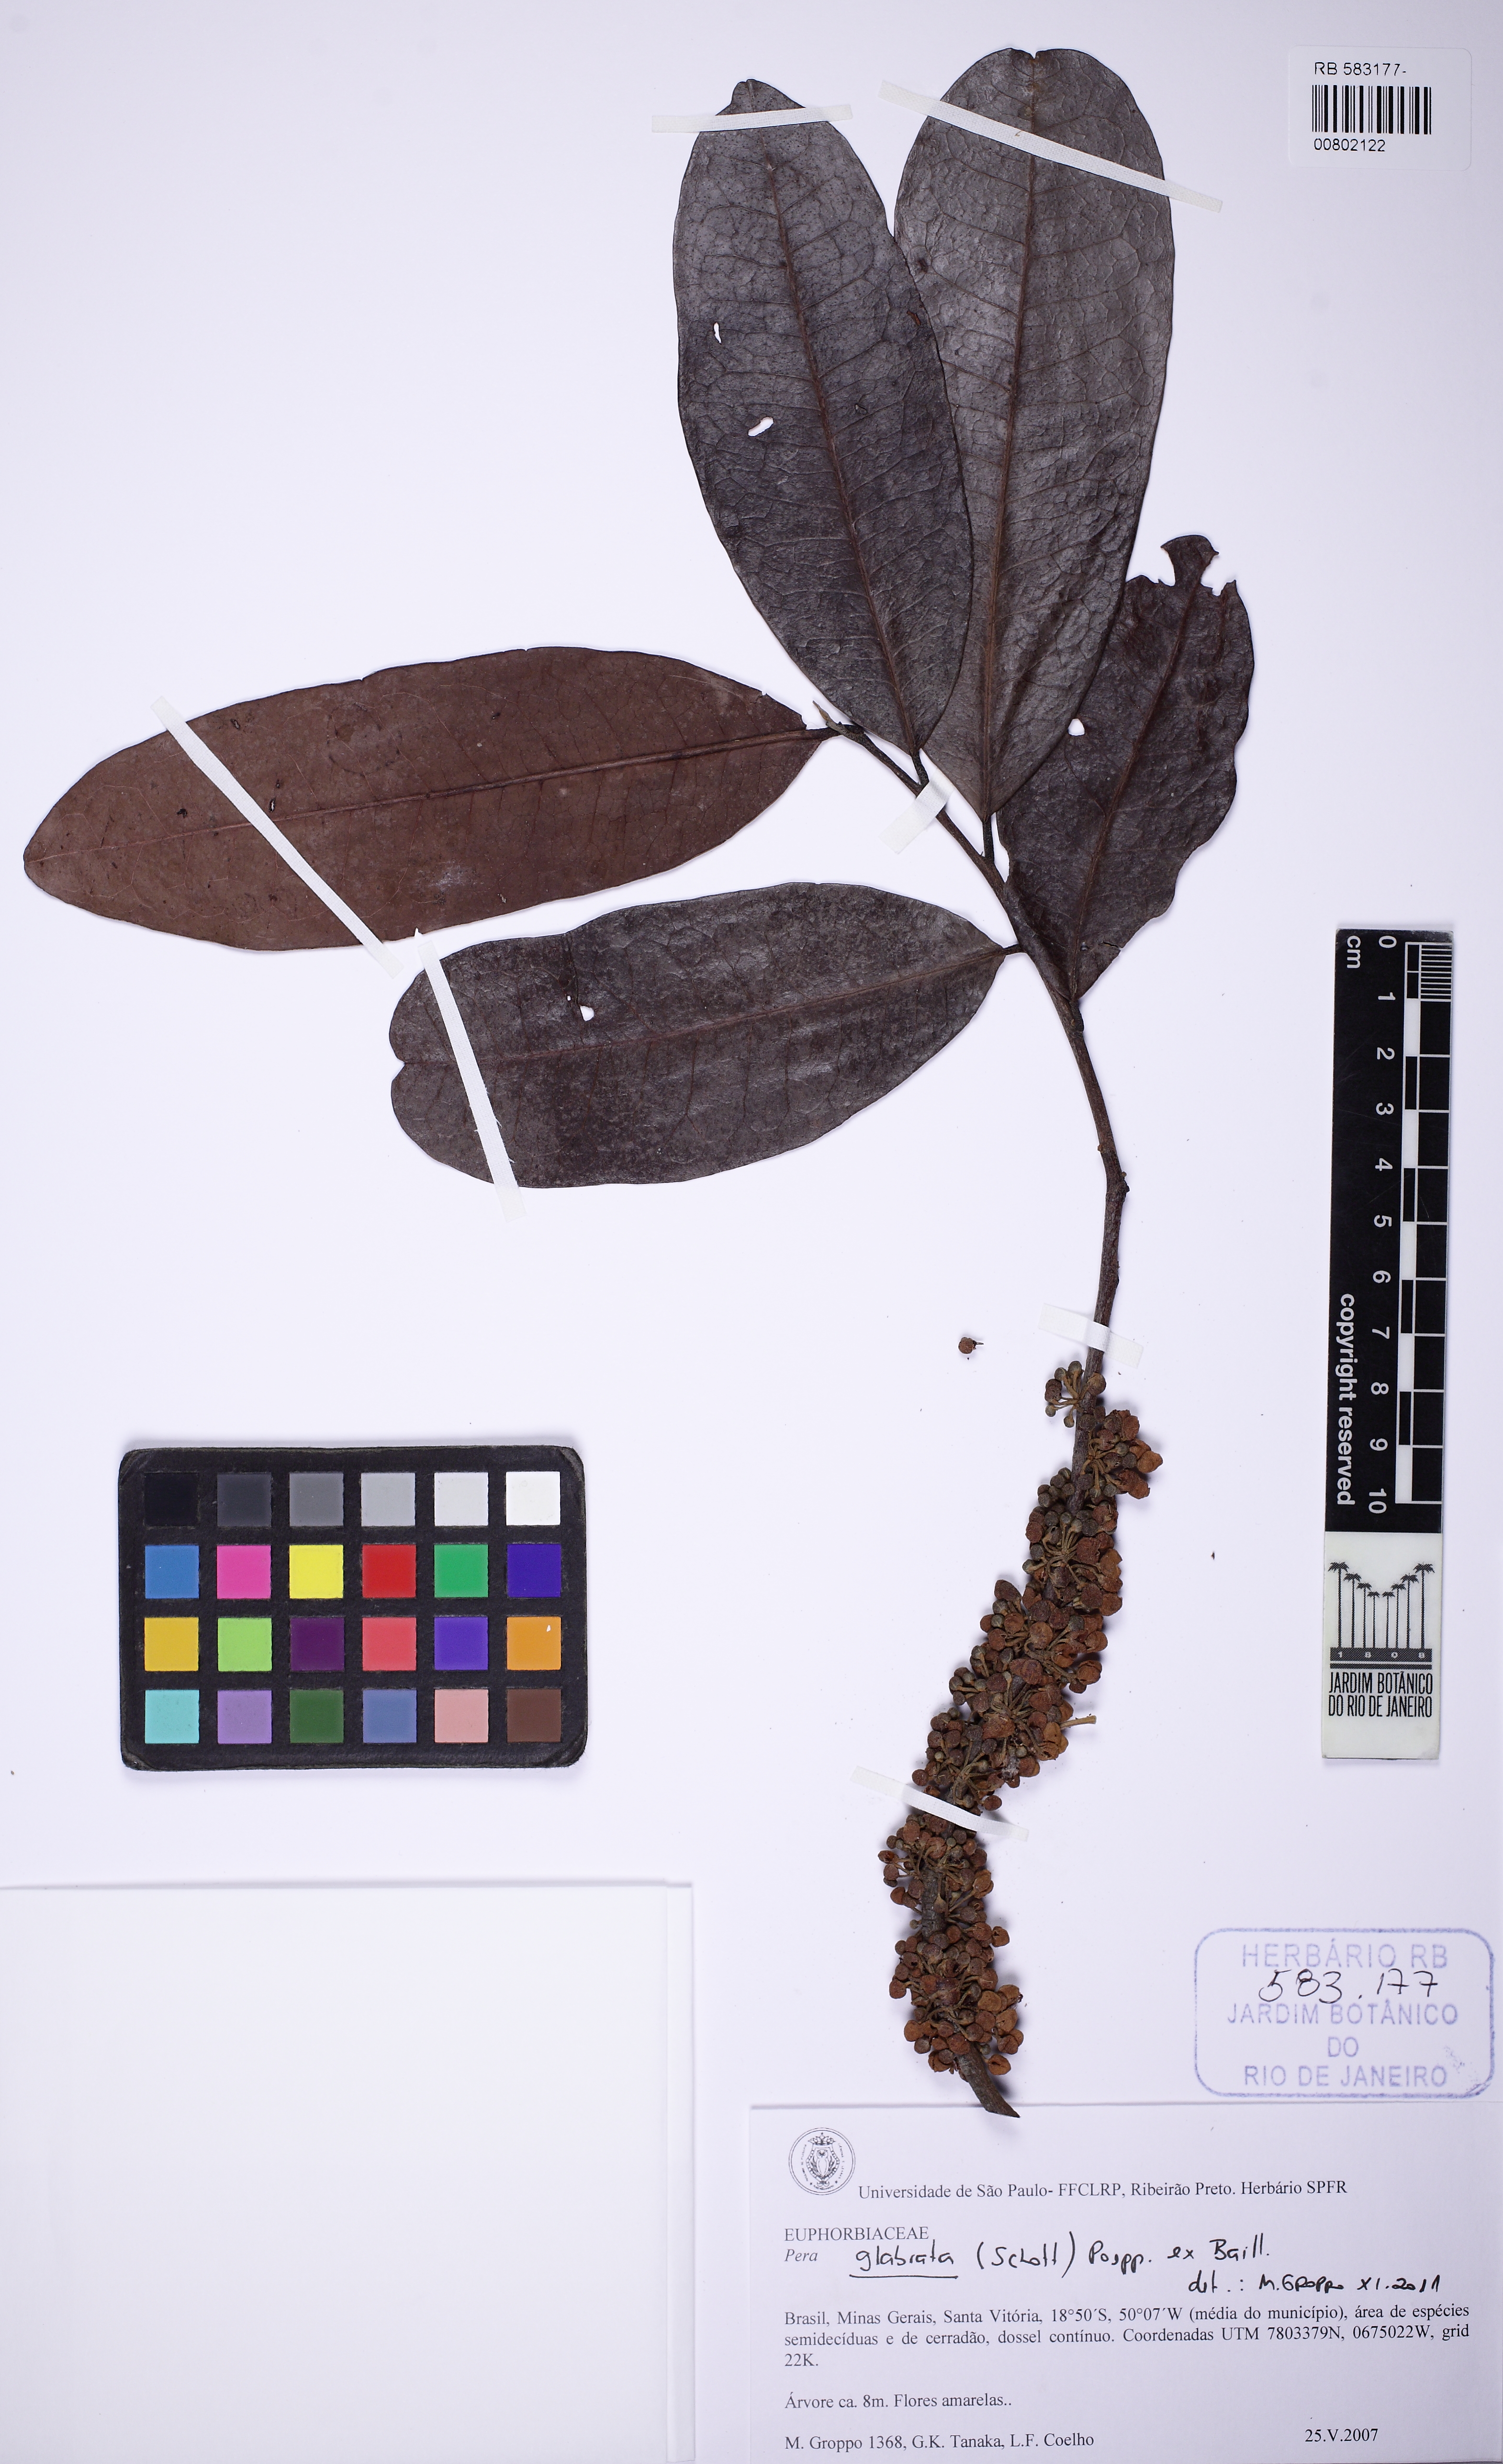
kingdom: Plantae
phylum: Tracheophyta
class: Magnoliopsida
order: Malpighiales
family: Peraceae
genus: Pera
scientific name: Pera glabrata
